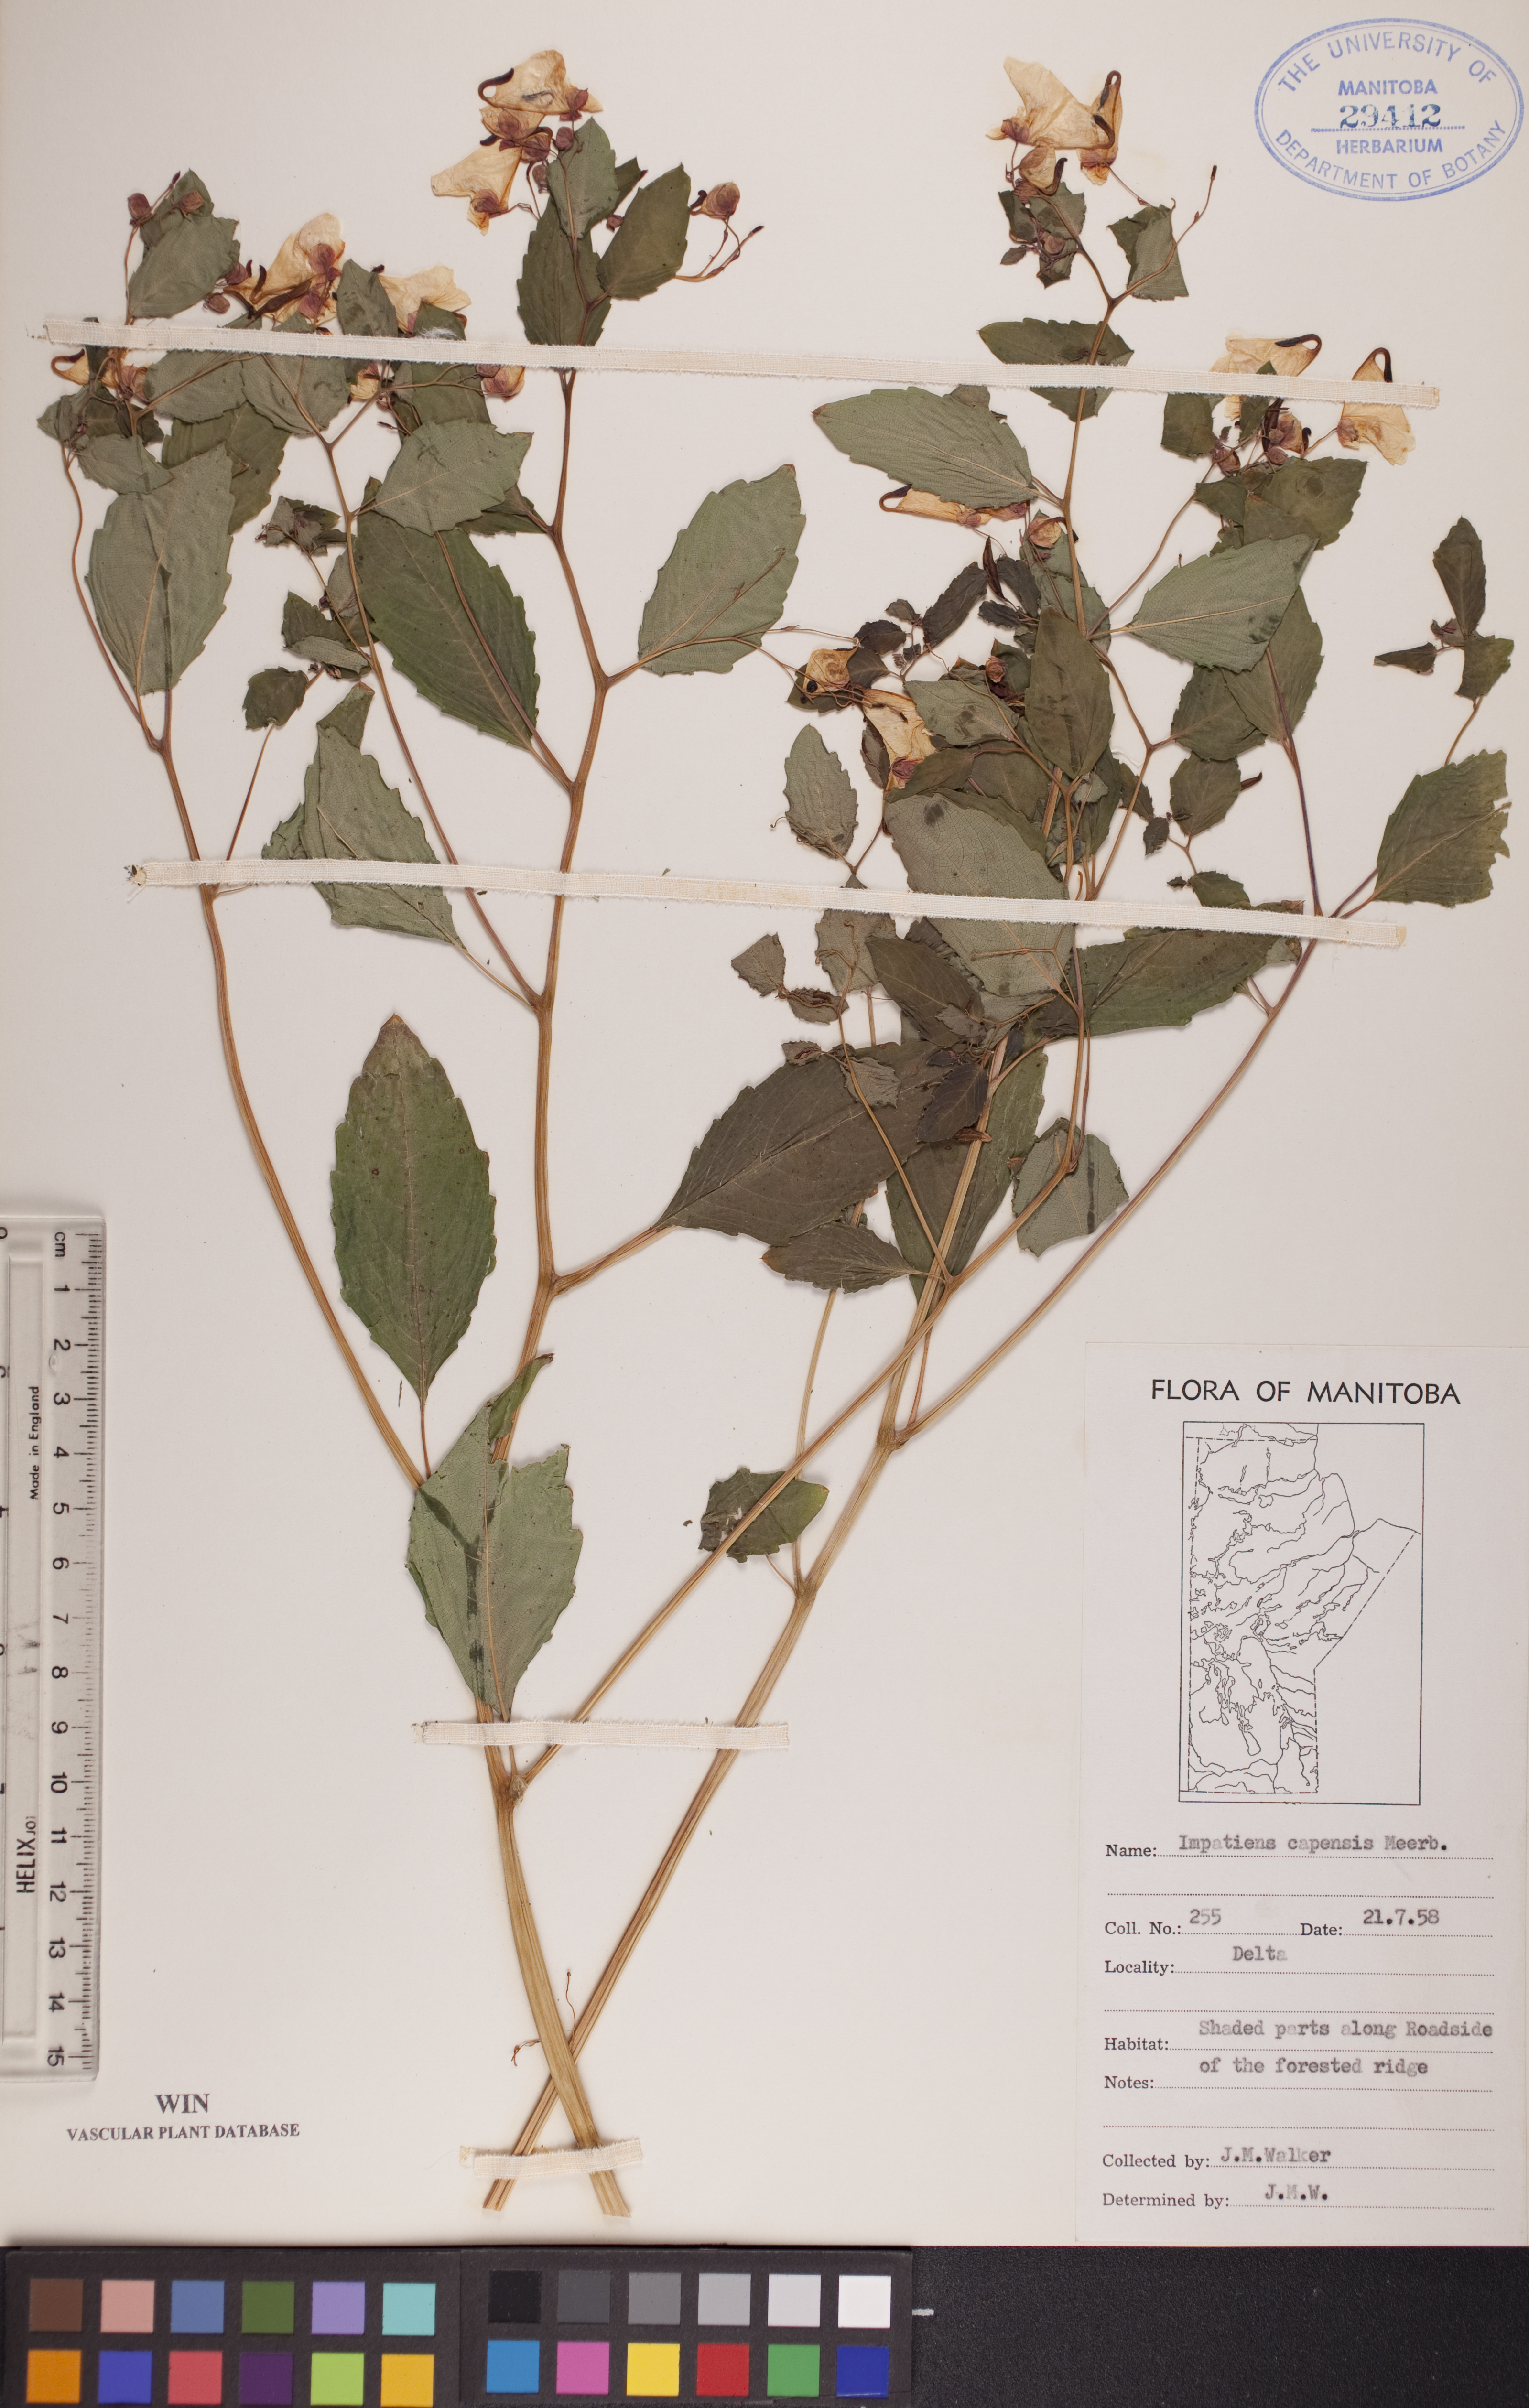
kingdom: Plantae
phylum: Tracheophyta
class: Magnoliopsida
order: Ericales
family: Balsaminaceae
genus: Impatiens
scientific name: Impatiens capensis
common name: Orange balsam
